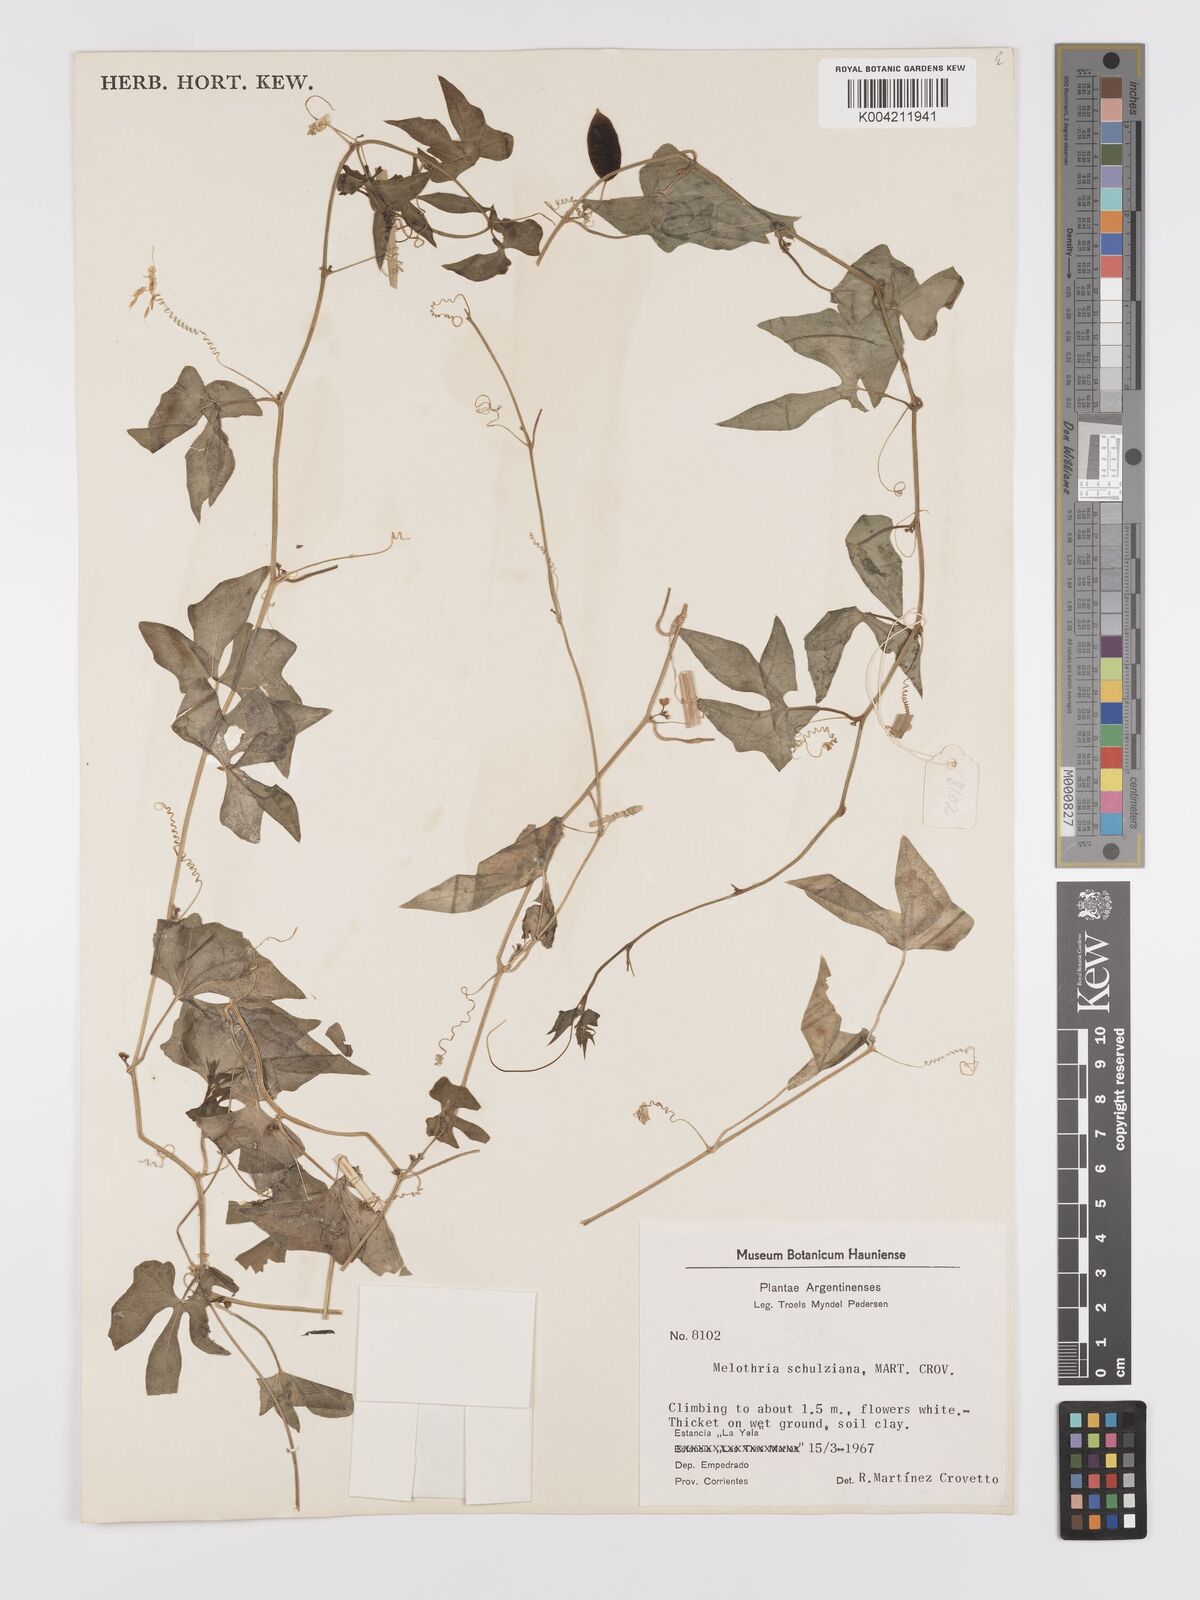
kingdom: Plantae
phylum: Tracheophyta
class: Magnoliopsida
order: Cucurbitales
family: Cucurbitaceae
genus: Melothria
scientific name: Melothria schulziana
